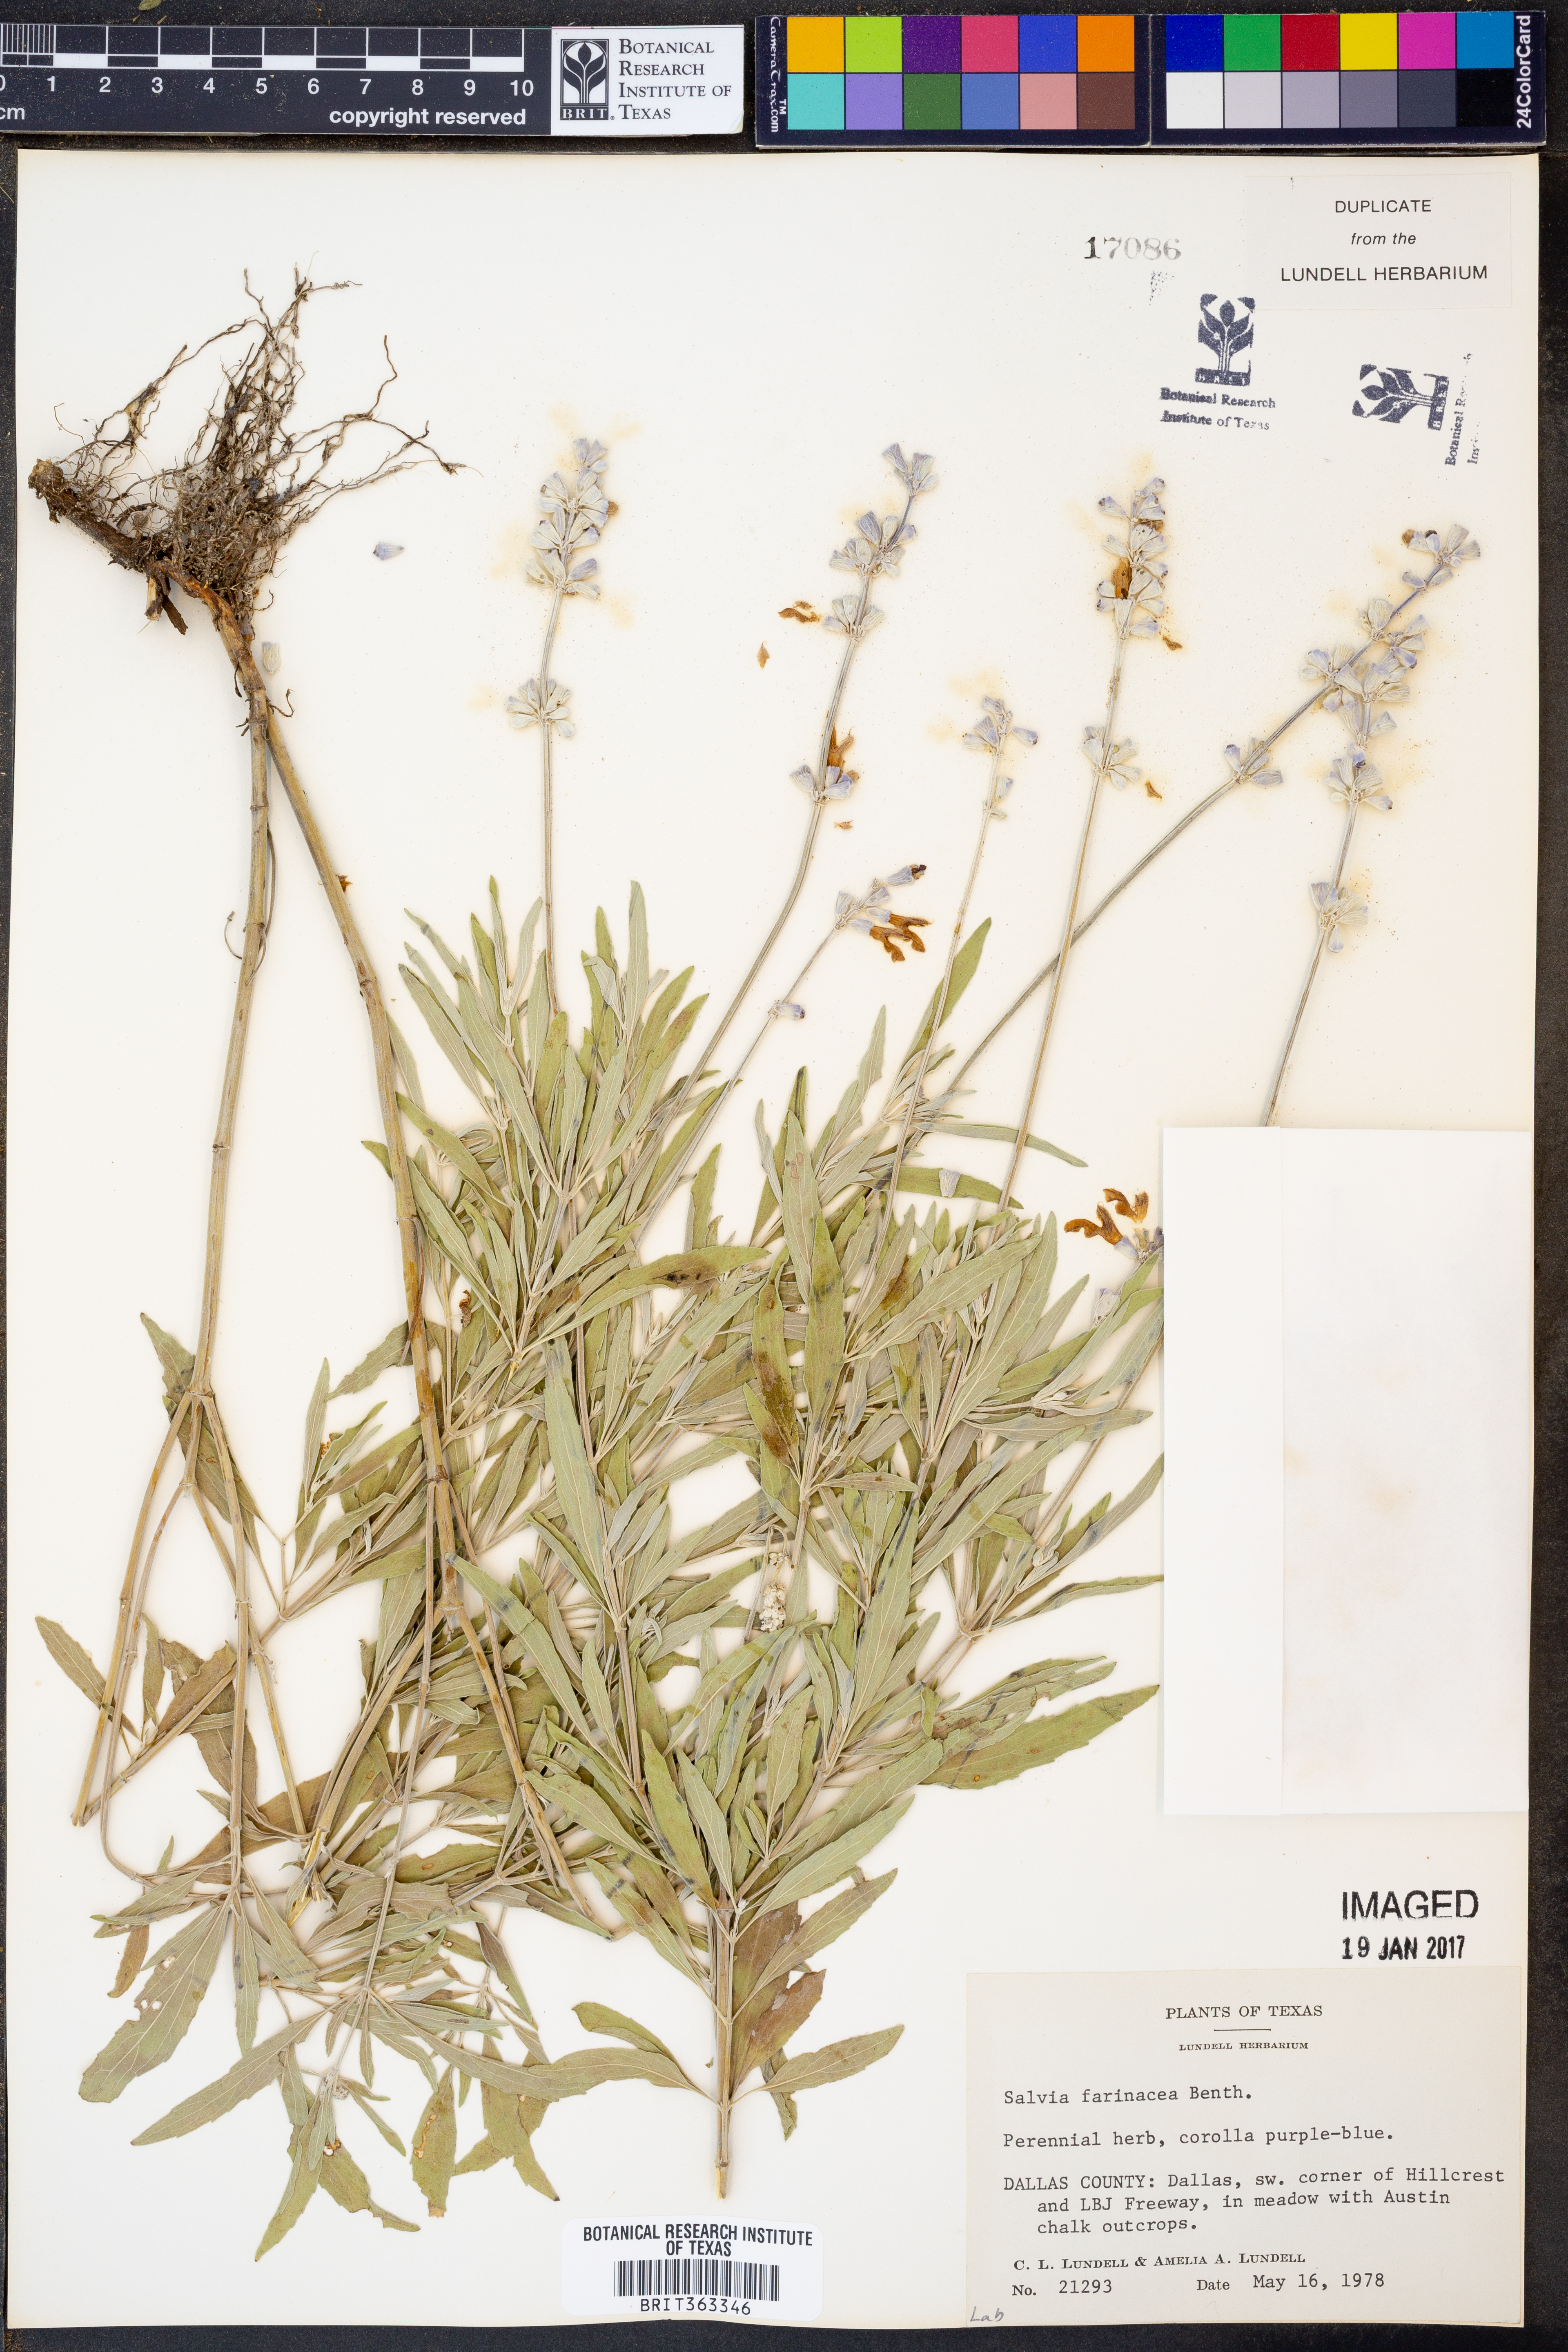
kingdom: Plantae
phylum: Tracheophyta
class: Magnoliopsida
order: Lamiales
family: Lamiaceae
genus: Salvia
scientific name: Salvia farinacea
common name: Mealy sage
